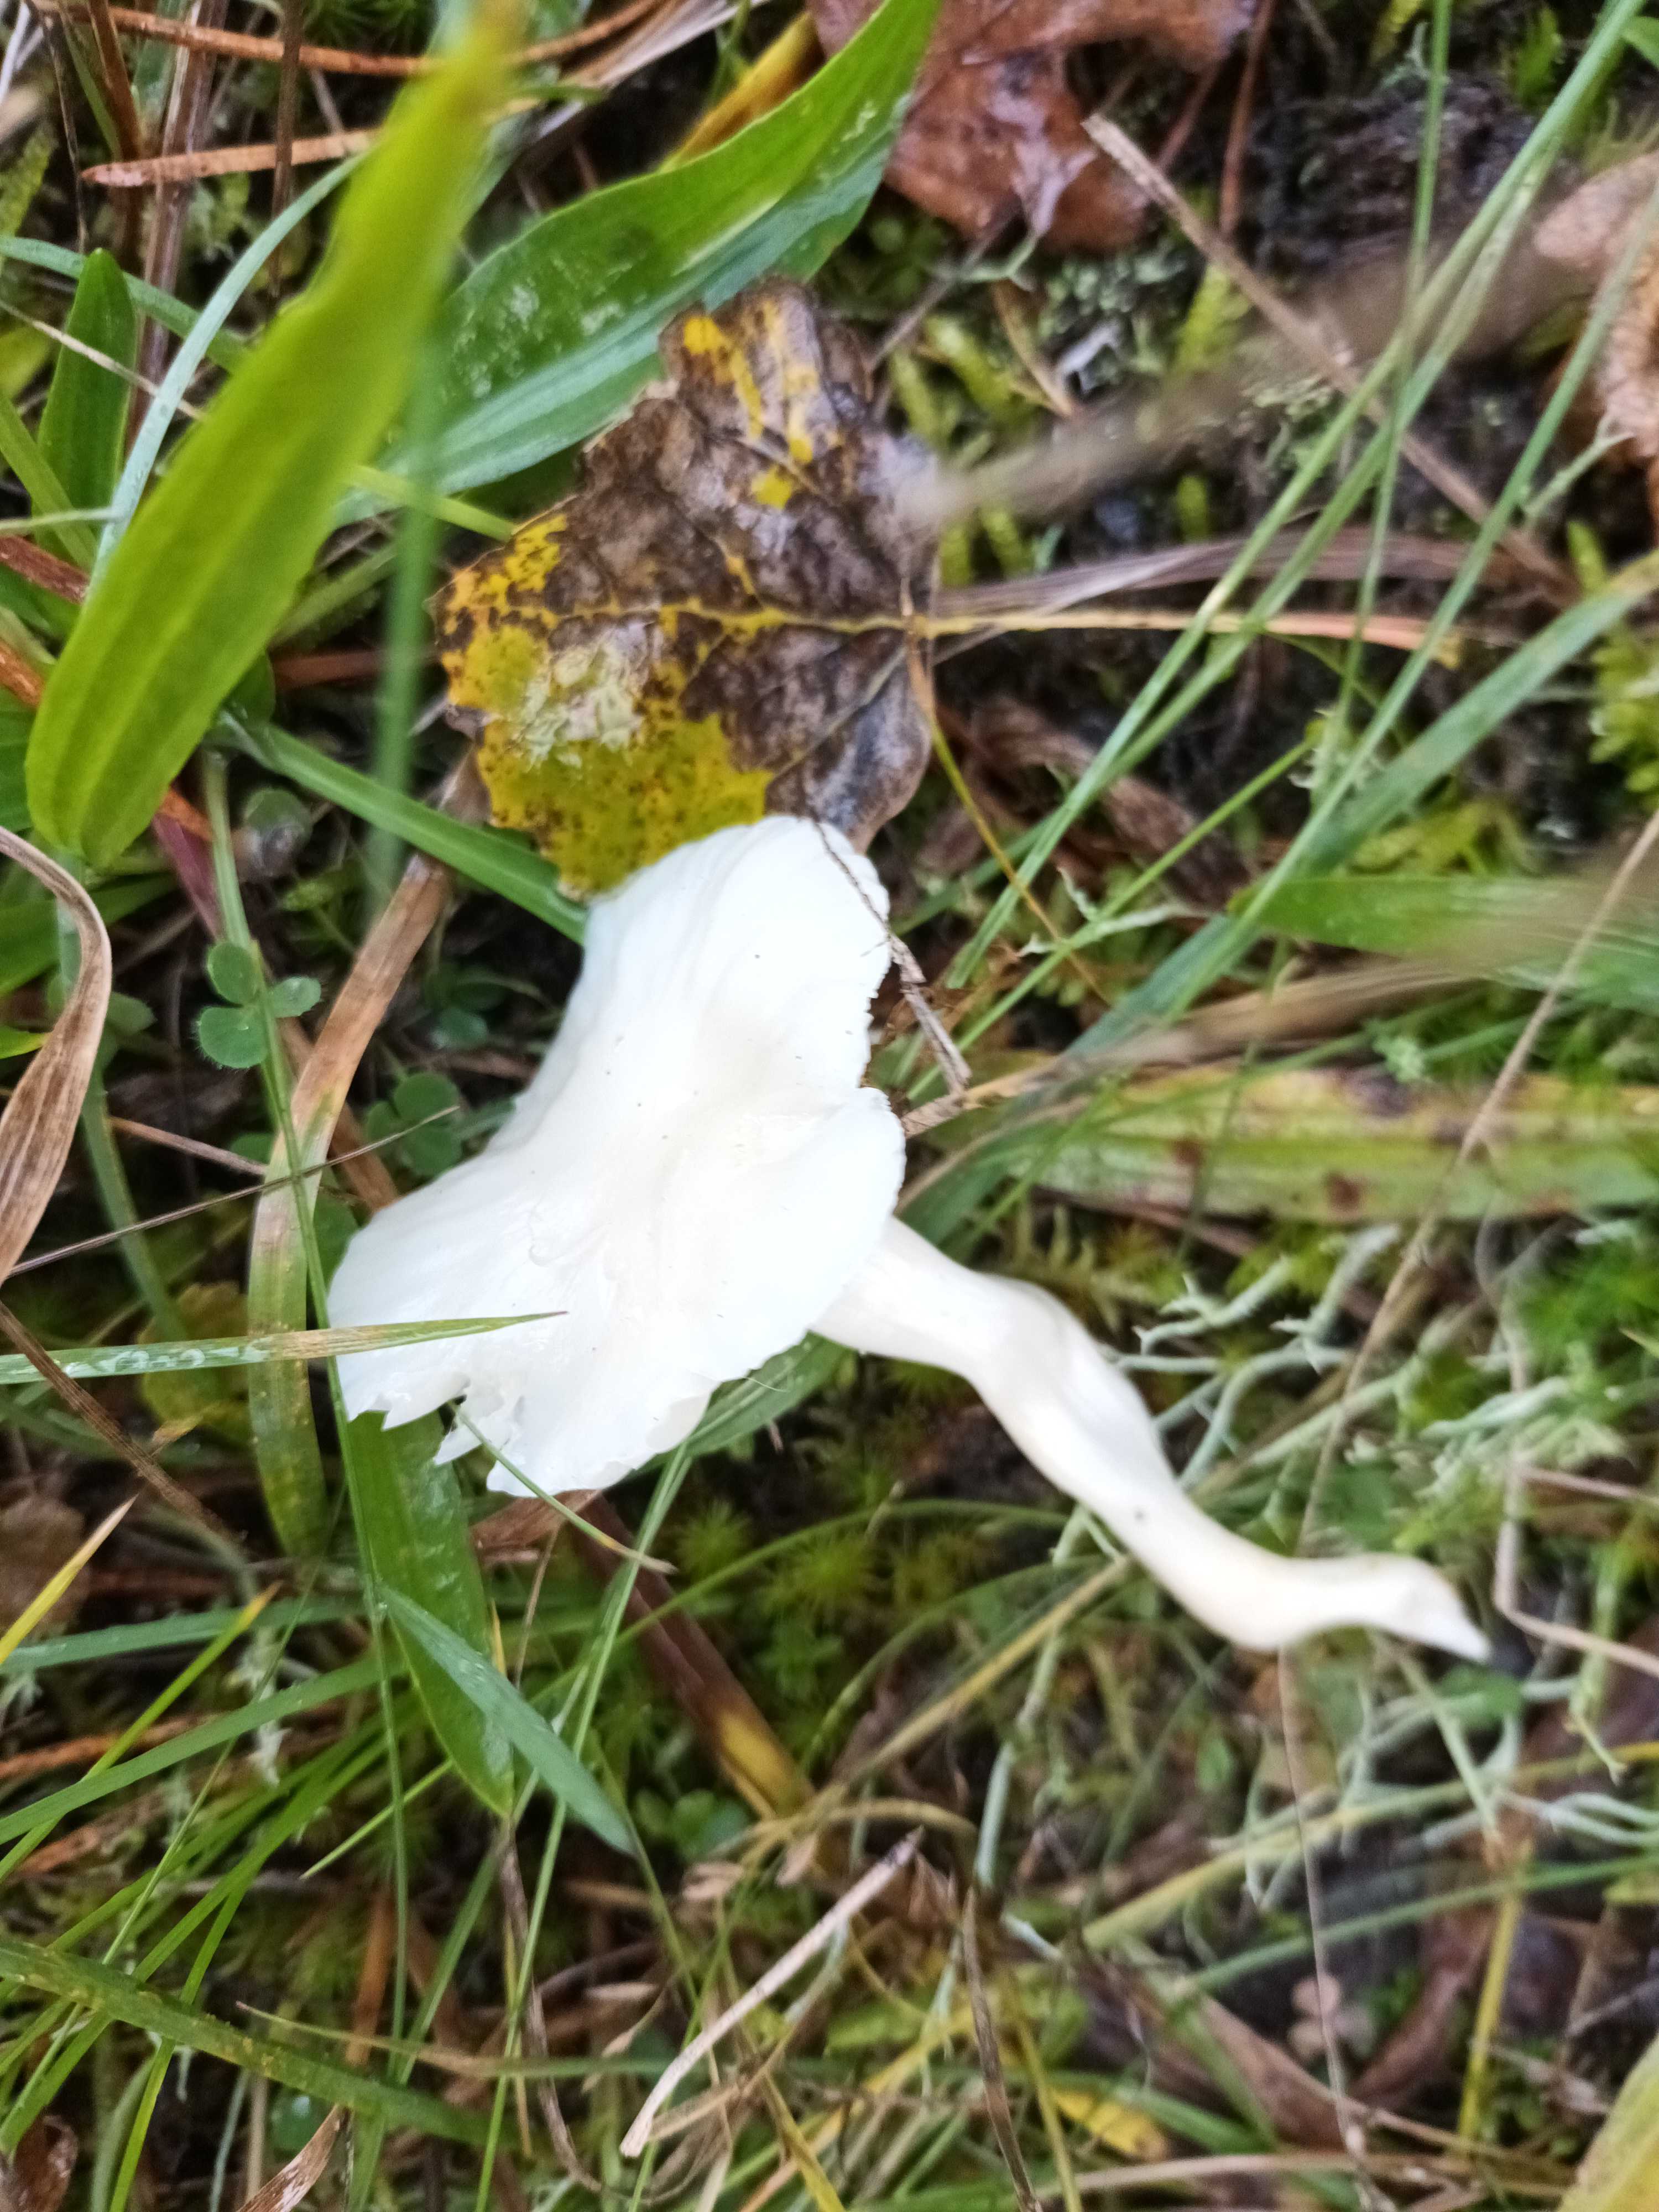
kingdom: Fungi
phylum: Basidiomycota
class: Agaricomycetes
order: Agaricales
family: Hygrophoraceae
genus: Cuphophyllus
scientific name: Cuphophyllus virgineus
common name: snehvid vokshat
